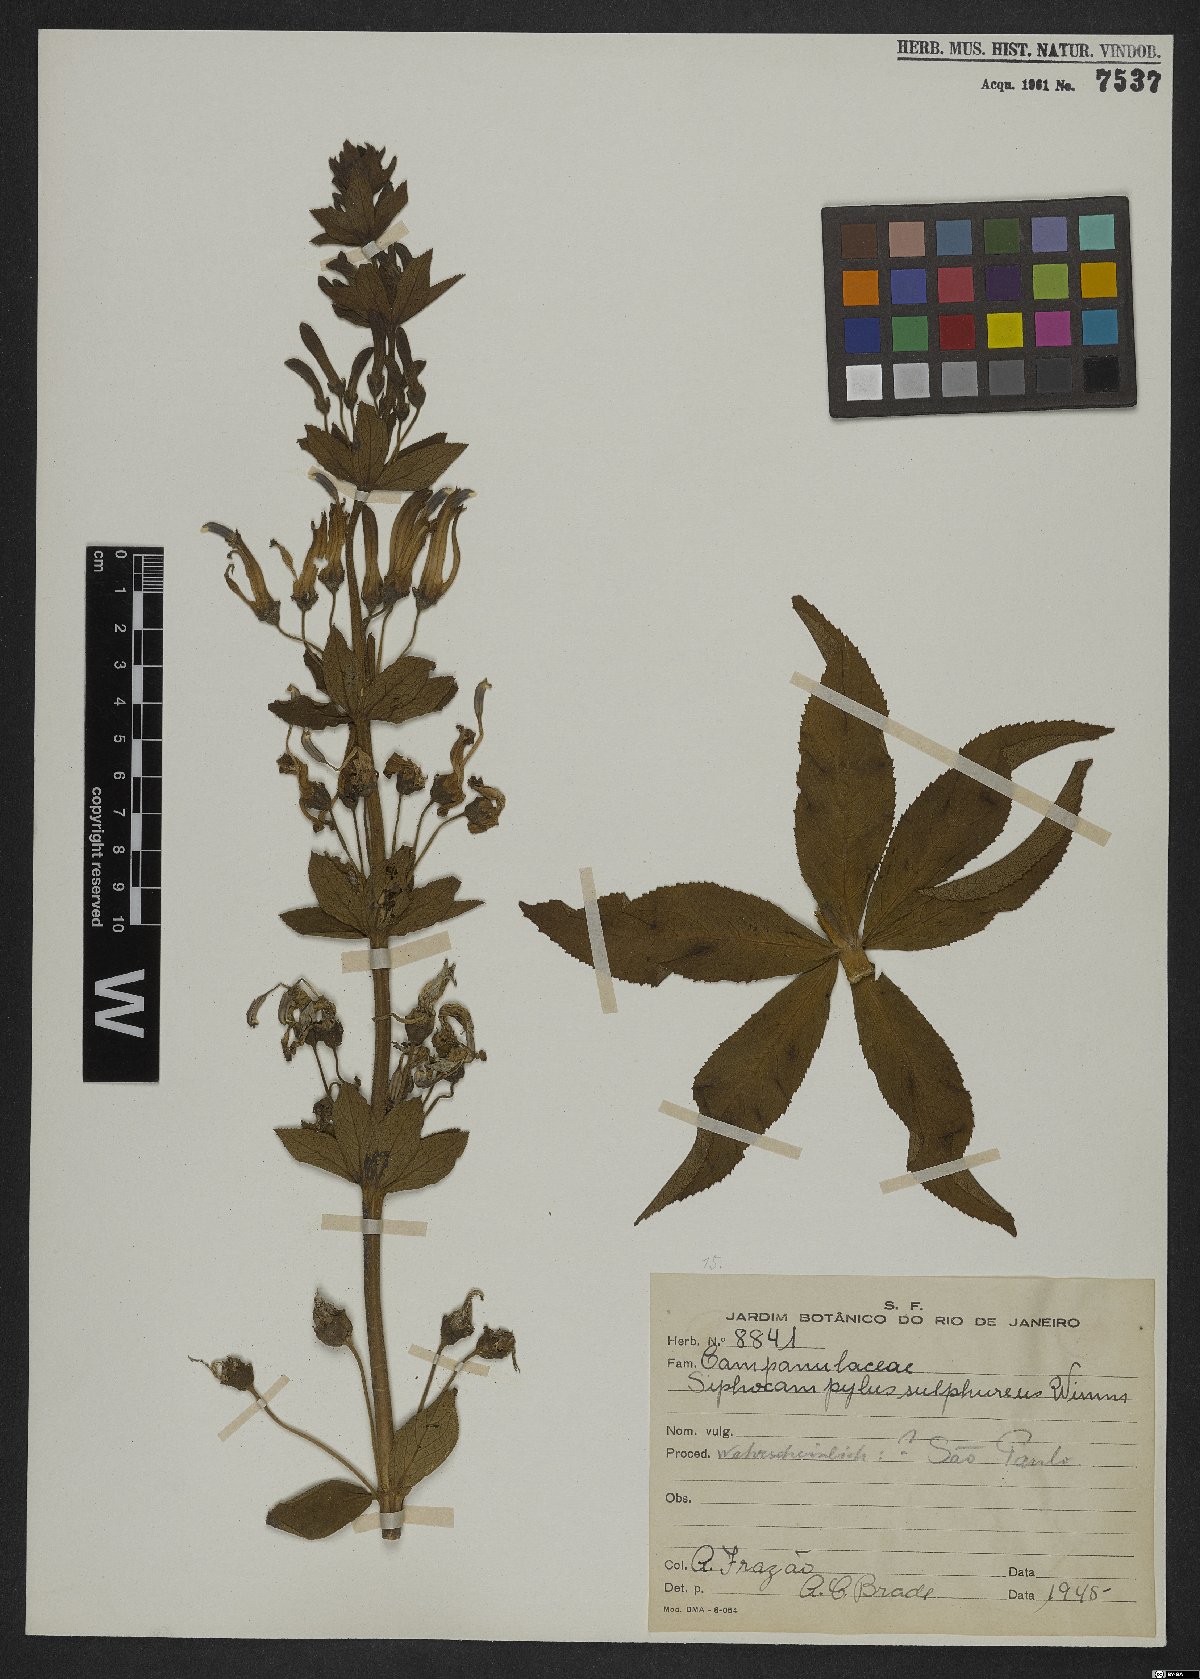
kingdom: Plantae
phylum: Tracheophyta
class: Magnoliopsida
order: Asterales
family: Campanulaceae
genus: Siphocampylus
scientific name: Siphocampylus sulfureus
